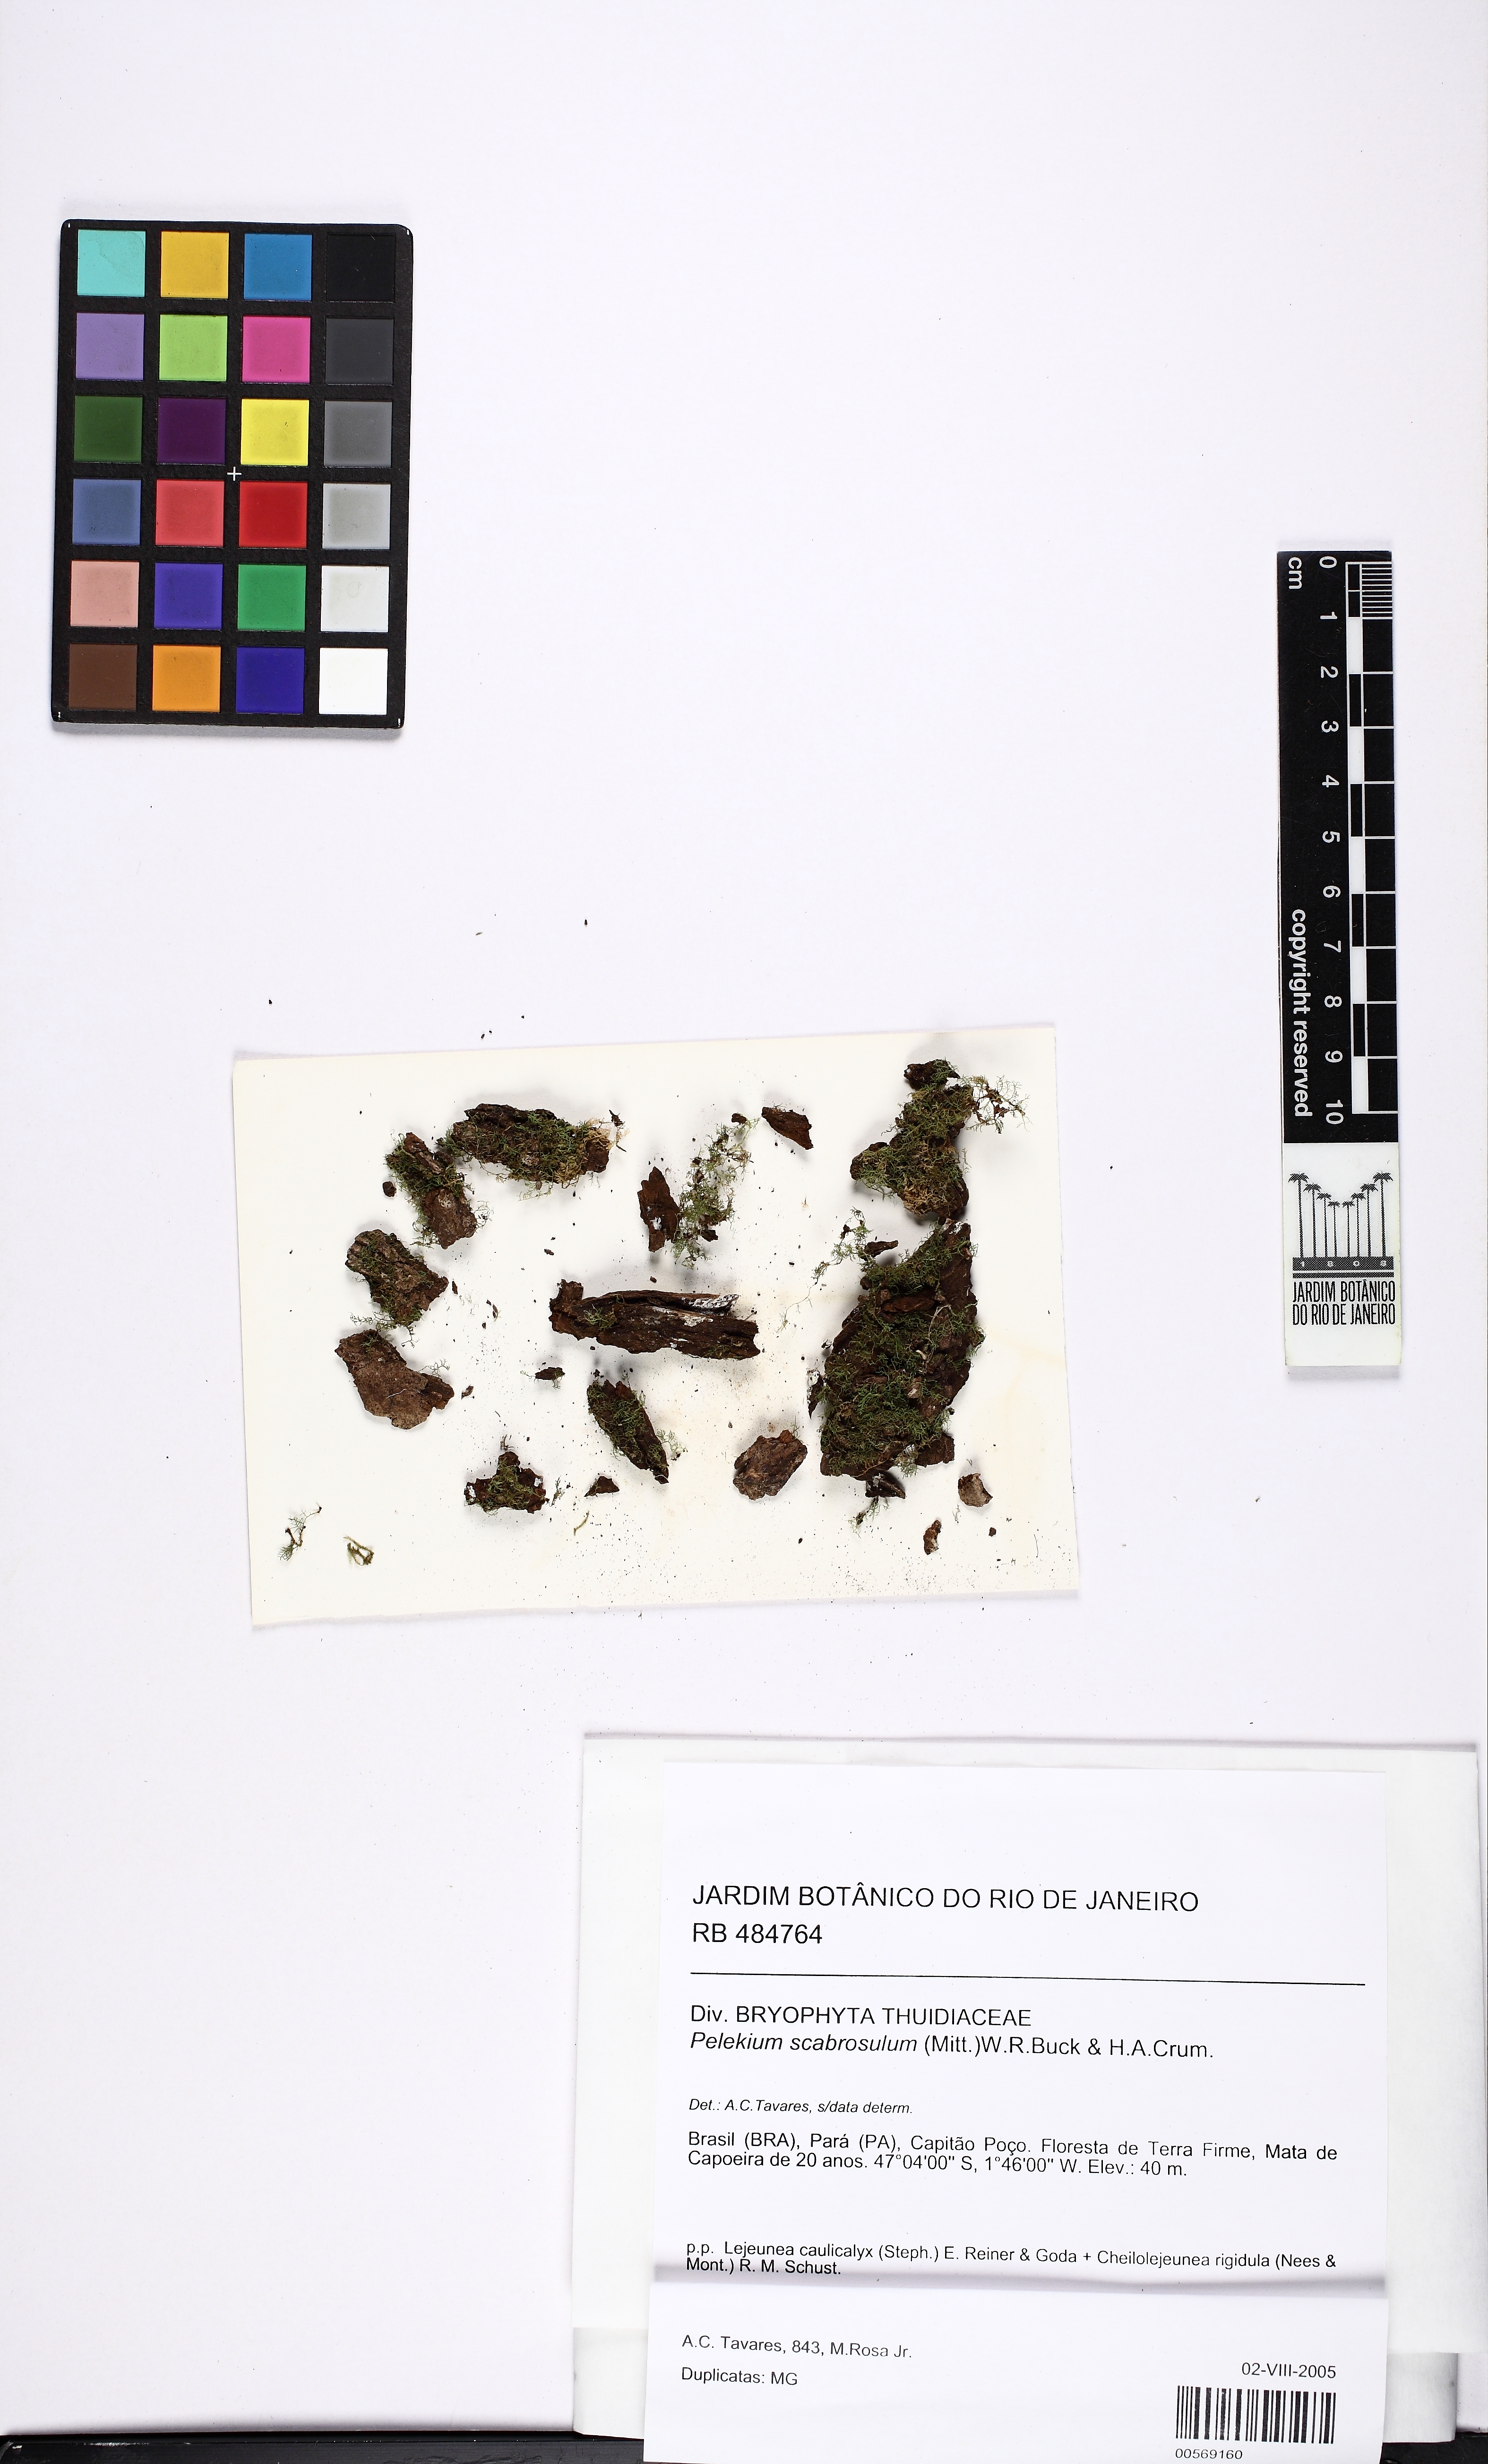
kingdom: Plantae
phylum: Bryophyta
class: Bryopsida
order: Hypnales
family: Thuidiaceae
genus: Pelekium
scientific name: Pelekium scabrosulum
